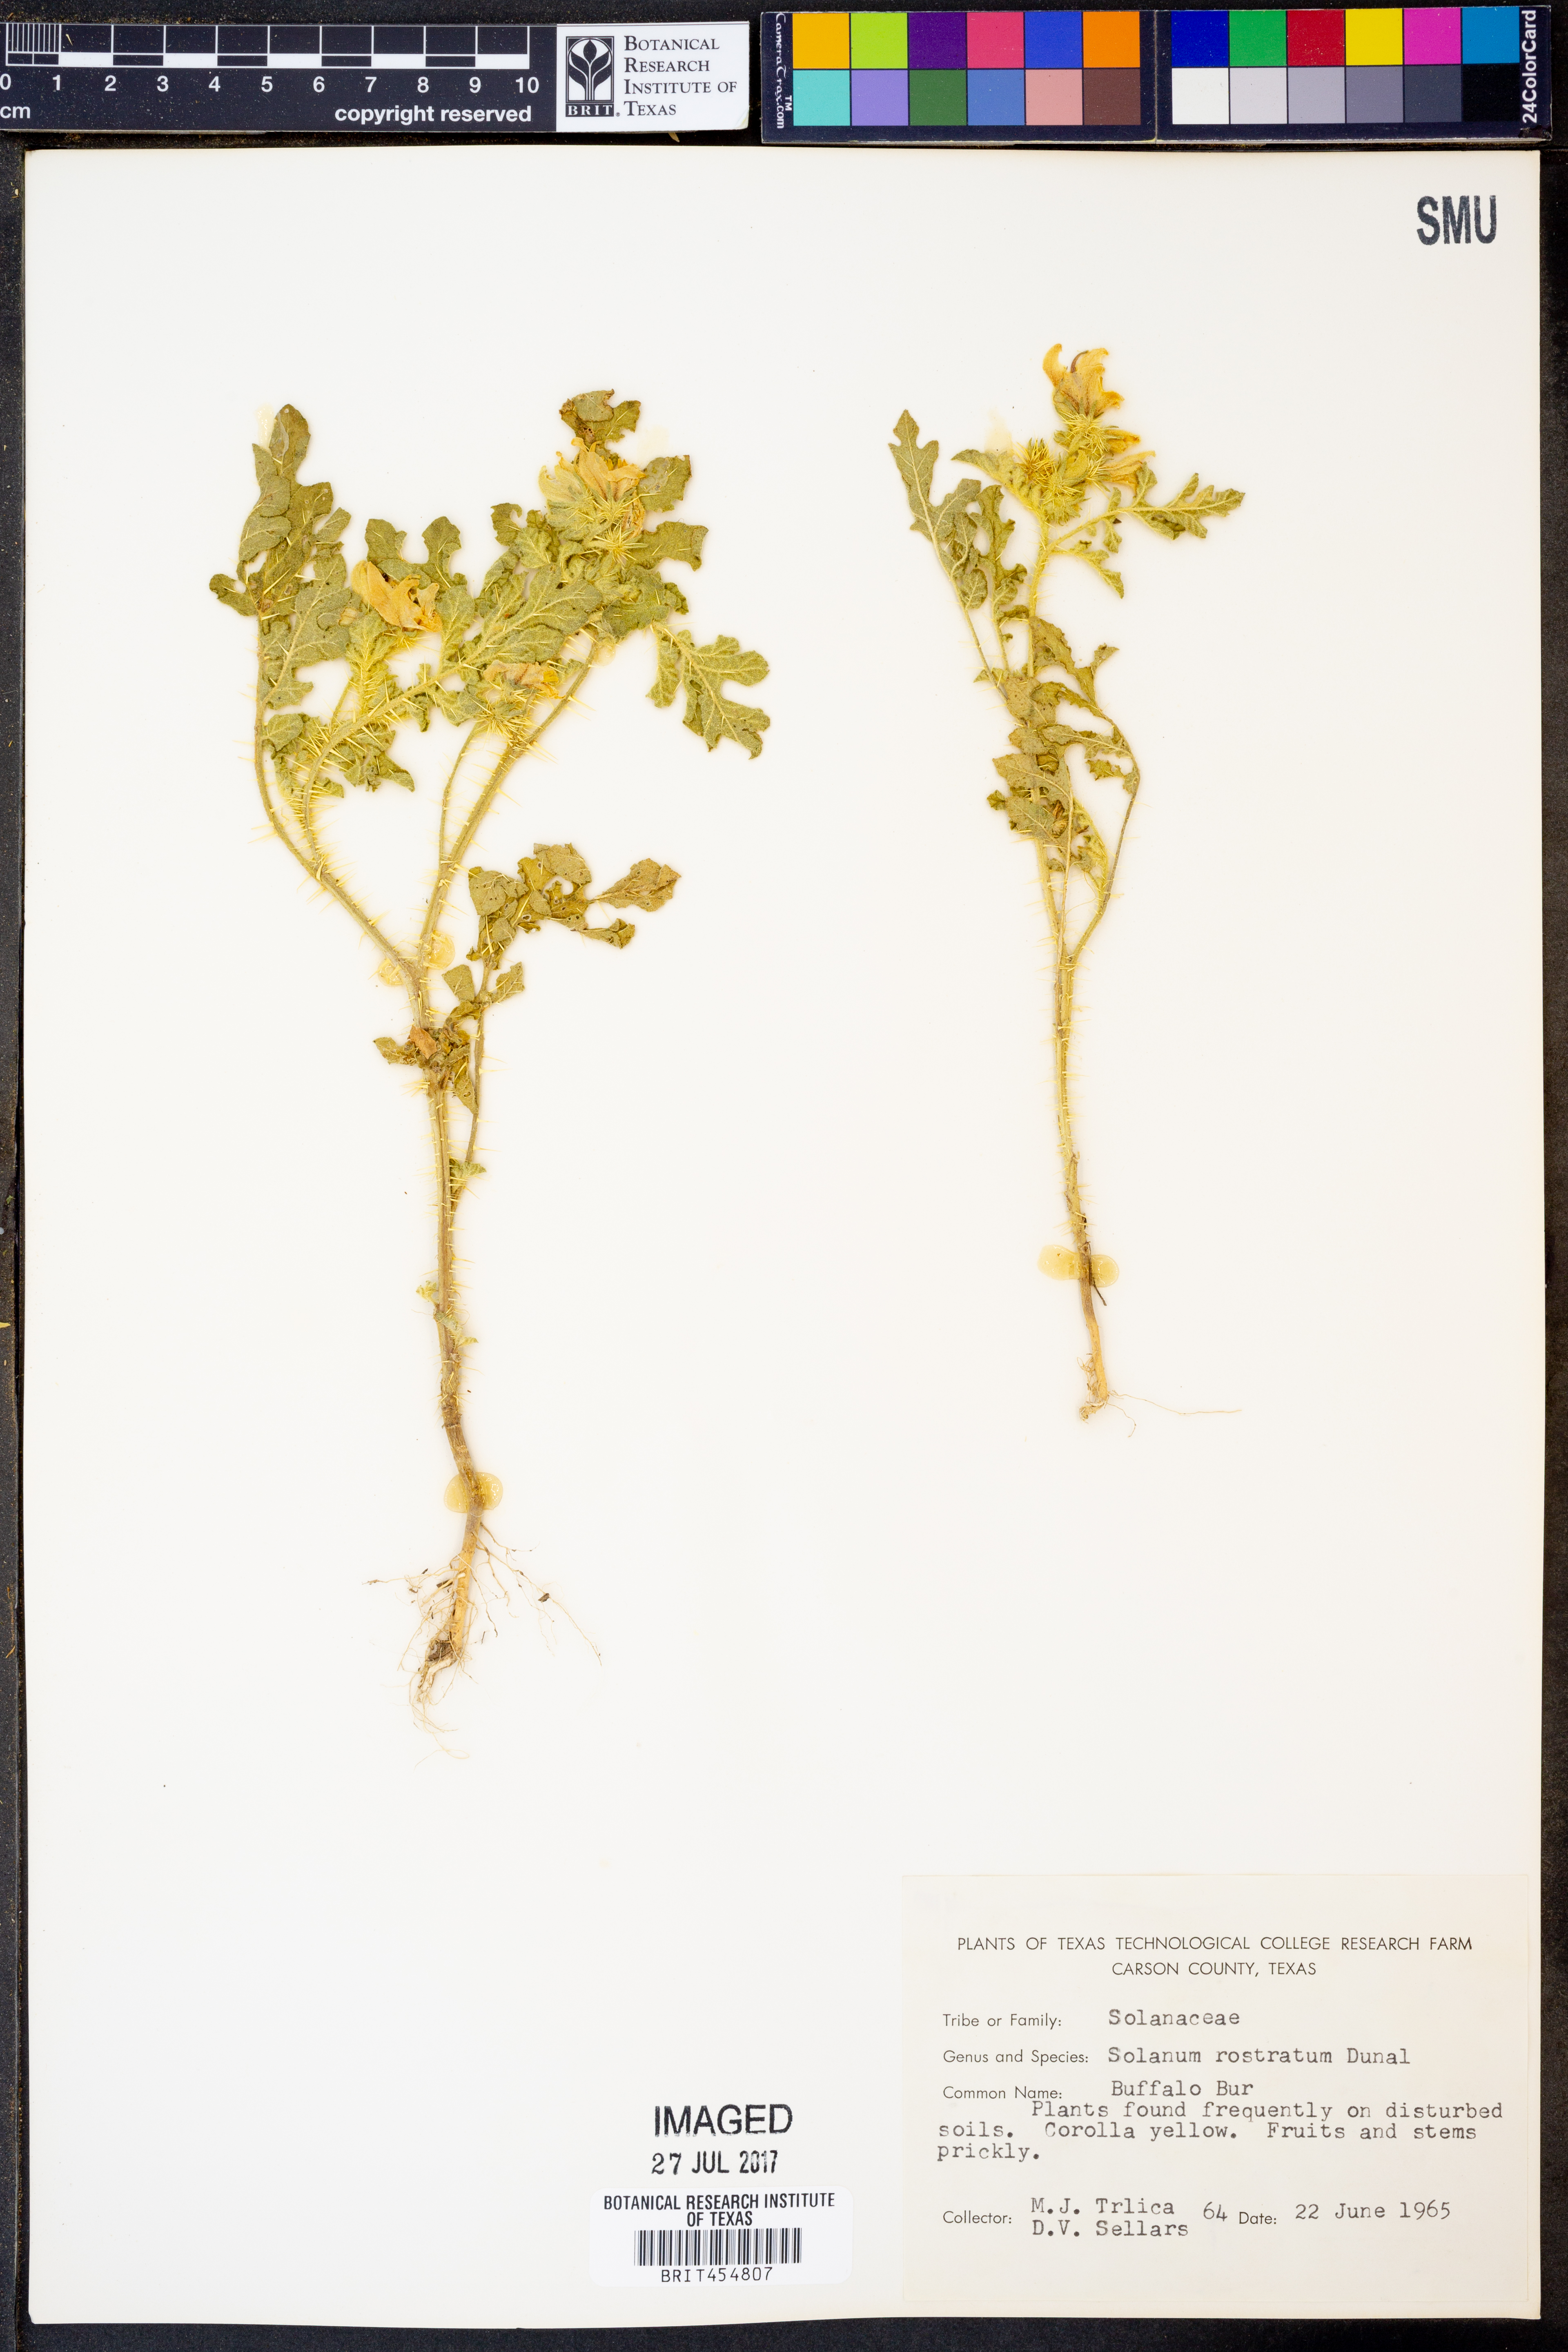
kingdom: Plantae
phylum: Tracheophyta
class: Magnoliopsida
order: Solanales
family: Solanaceae
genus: Solanum
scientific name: Solanum angustifolium
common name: Buffalobur nightshade
